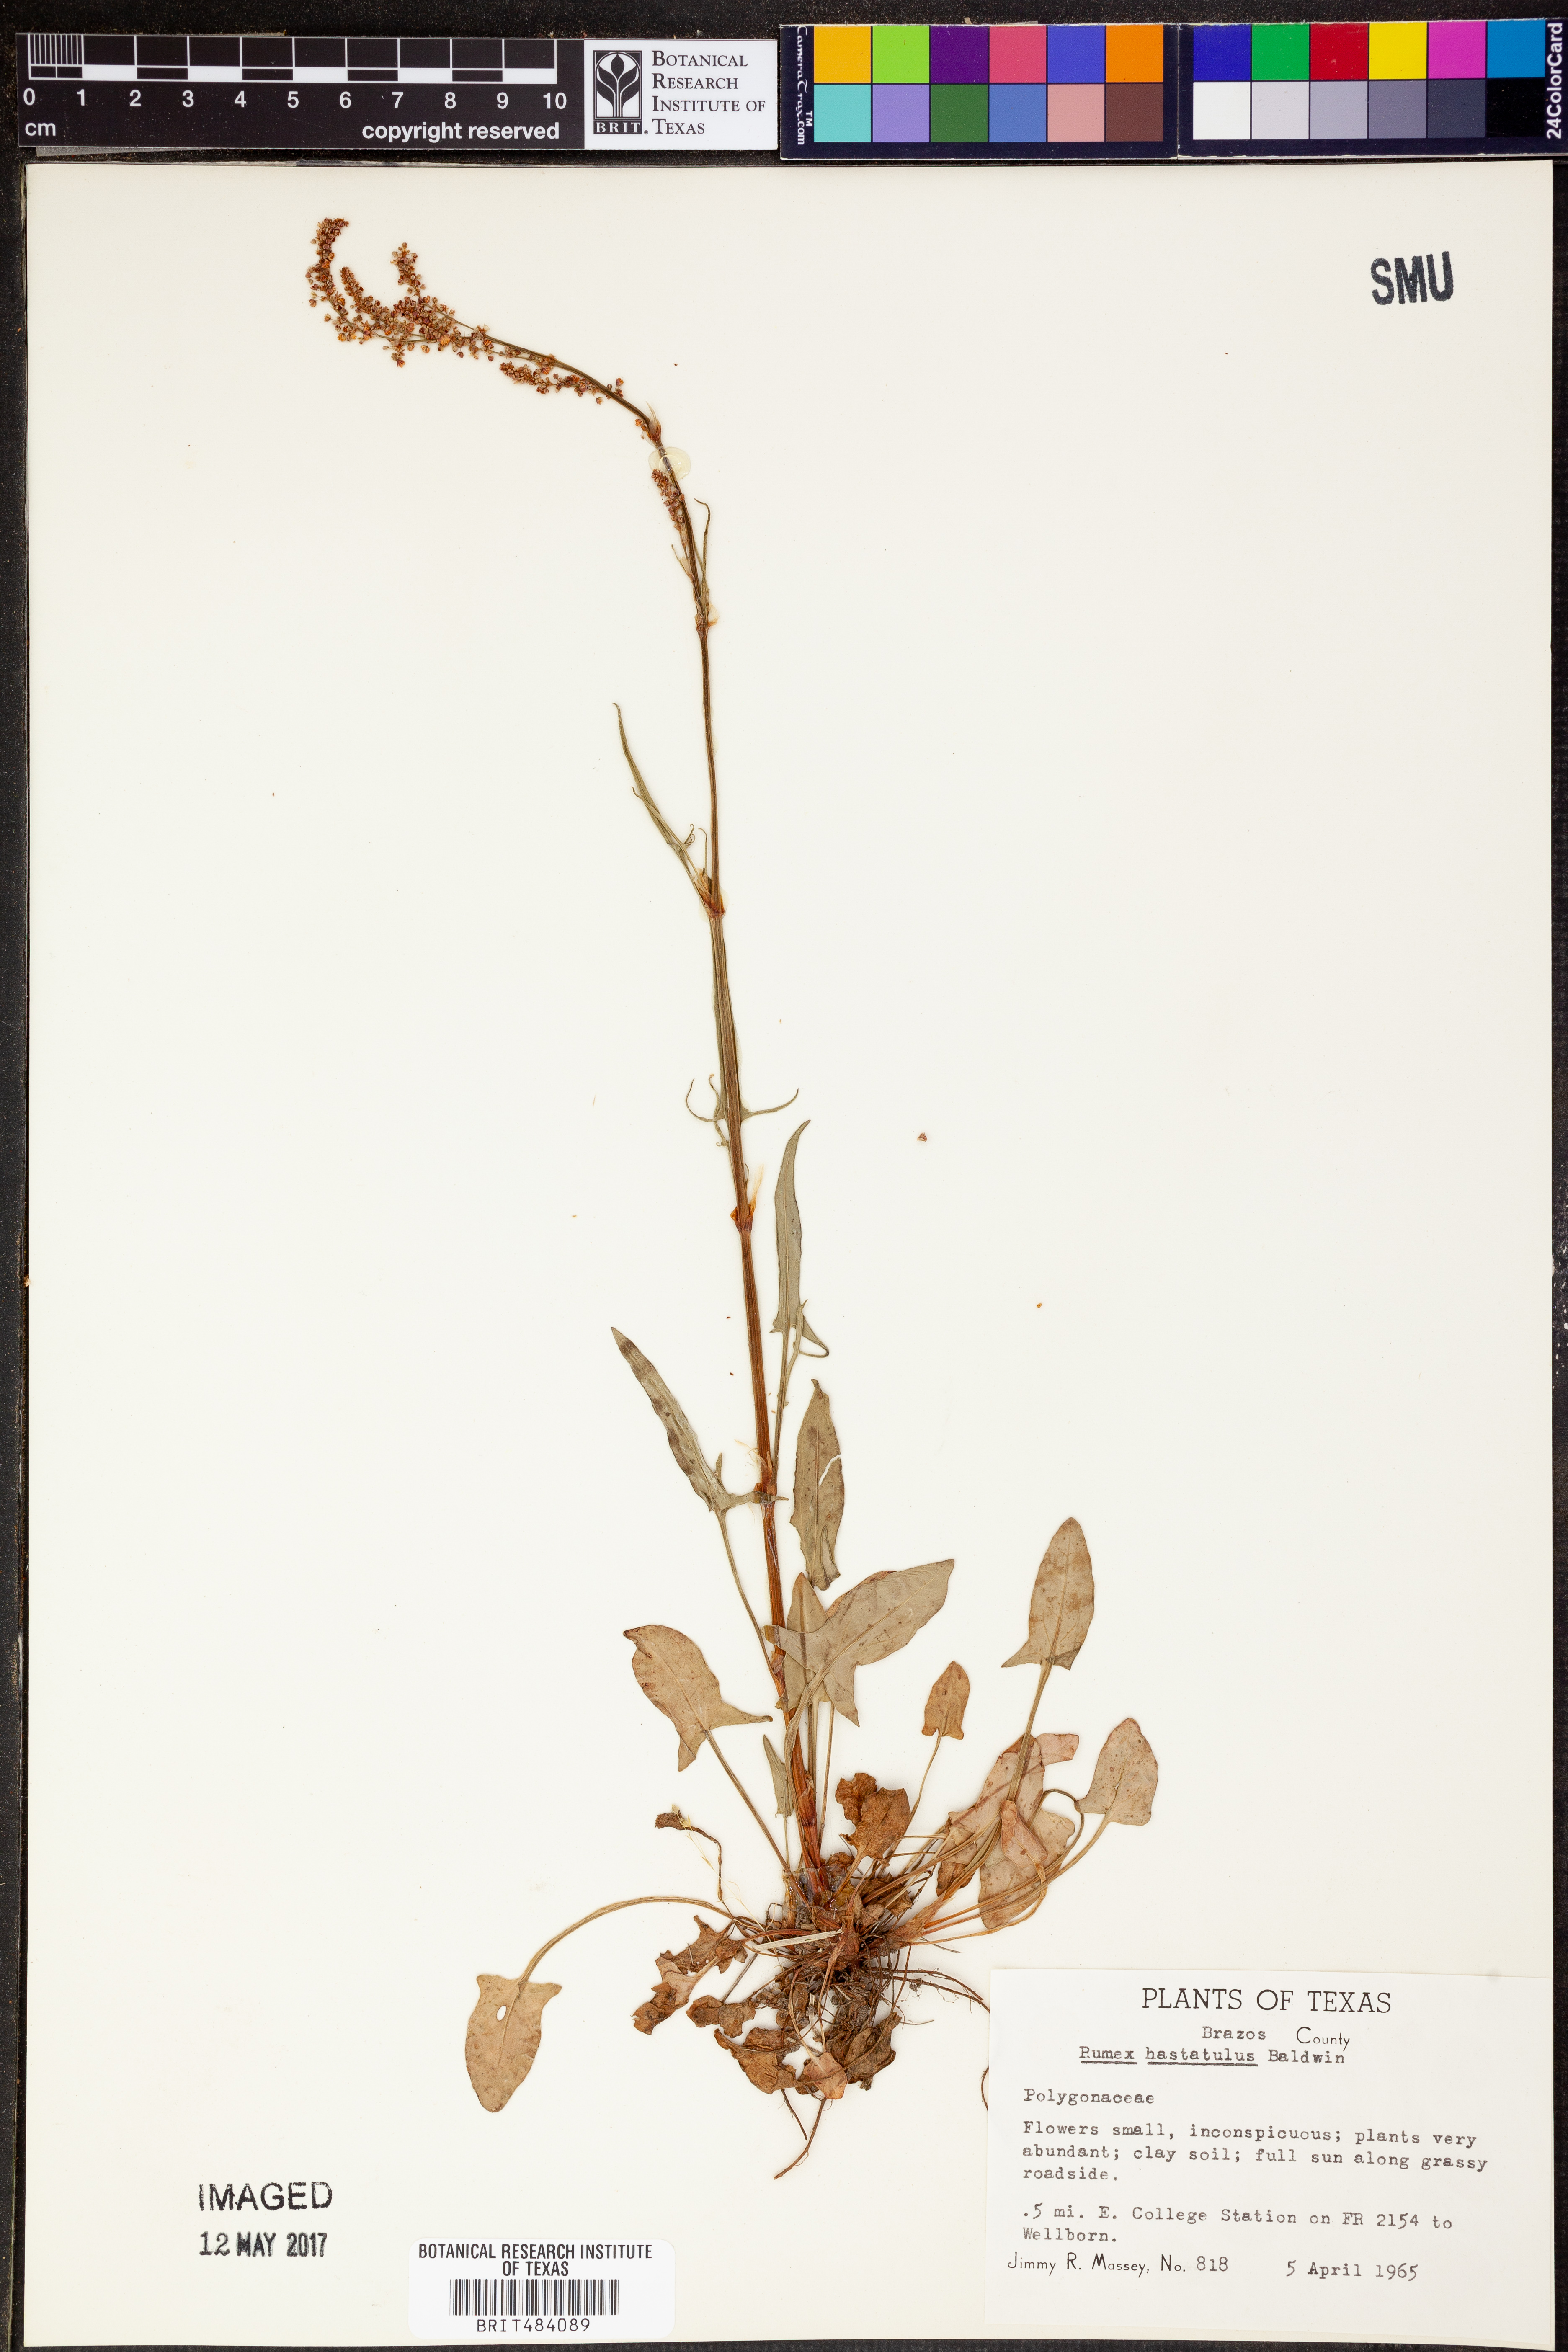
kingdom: Plantae
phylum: Tracheophyta
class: Magnoliopsida
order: Caryophyllales
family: Polygonaceae
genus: Rumex
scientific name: Rumex hastatulus
